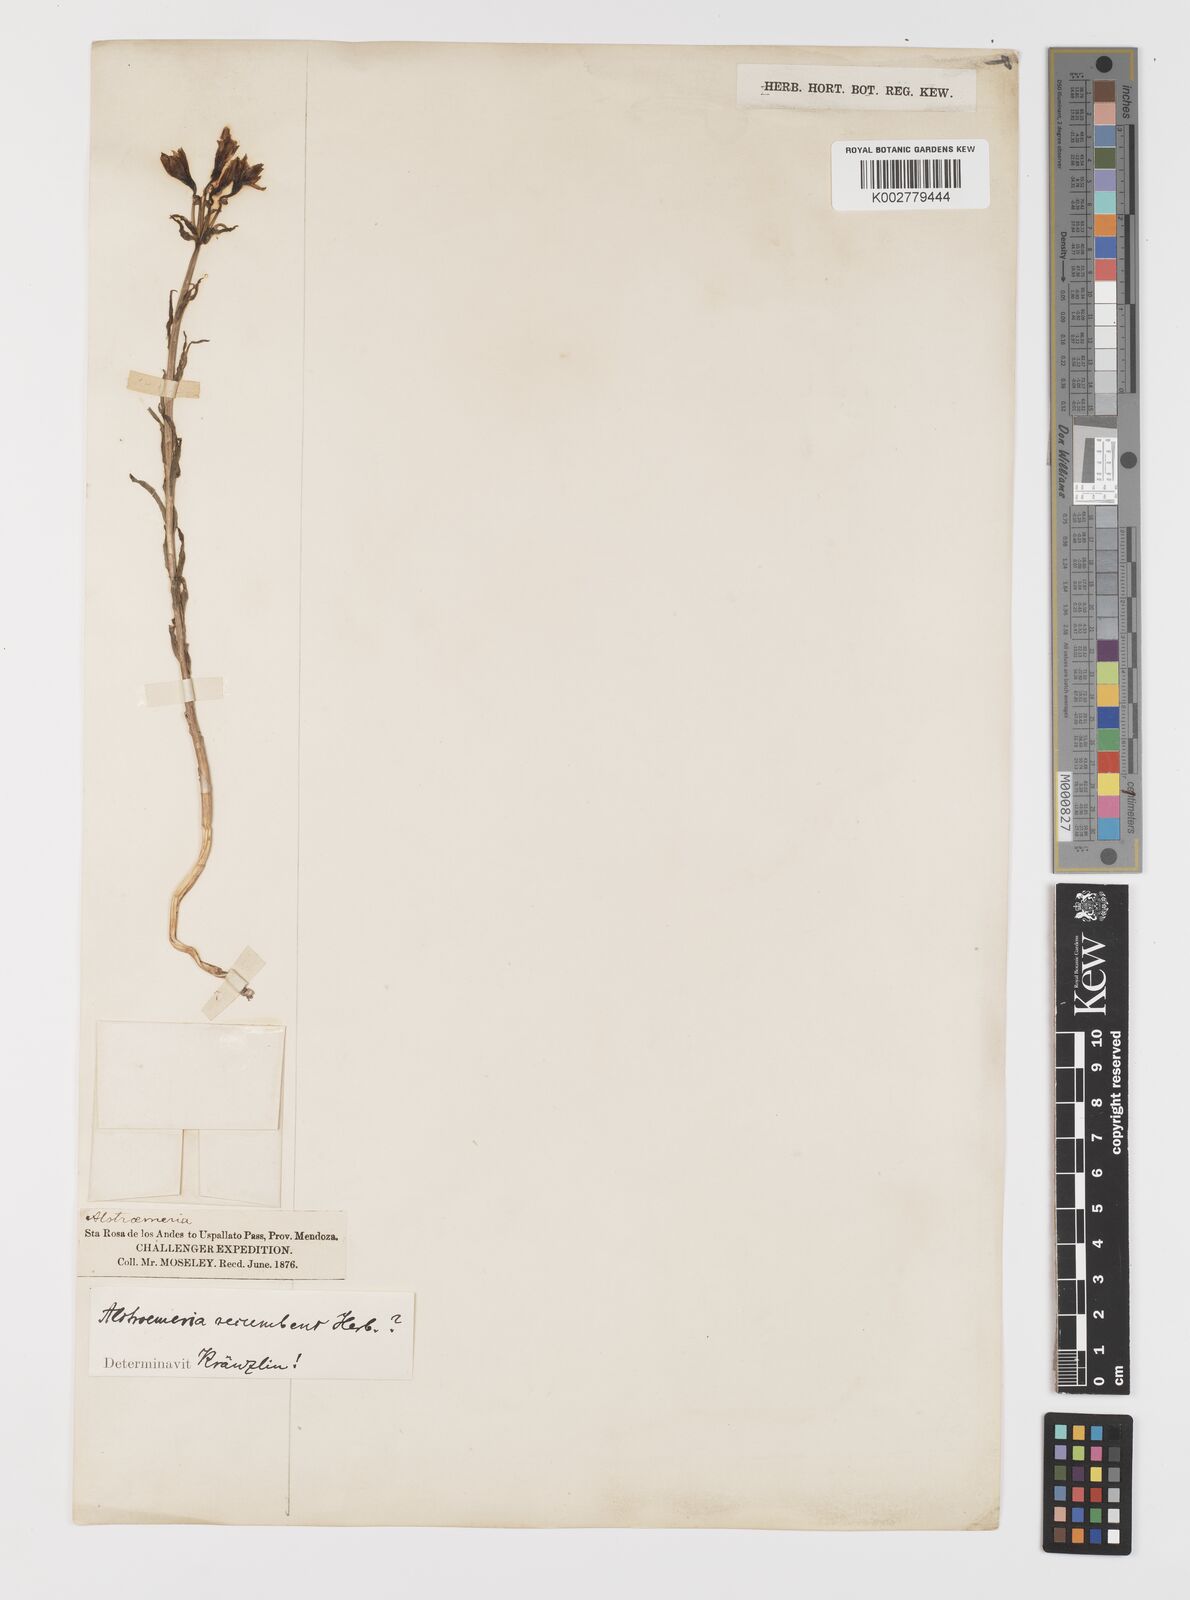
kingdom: Plantae
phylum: Tracheophyta
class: Liliopsida
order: Liliales
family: Alstroemeriaceae
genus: Alstroemeria
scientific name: Alstroemeria recumbens
